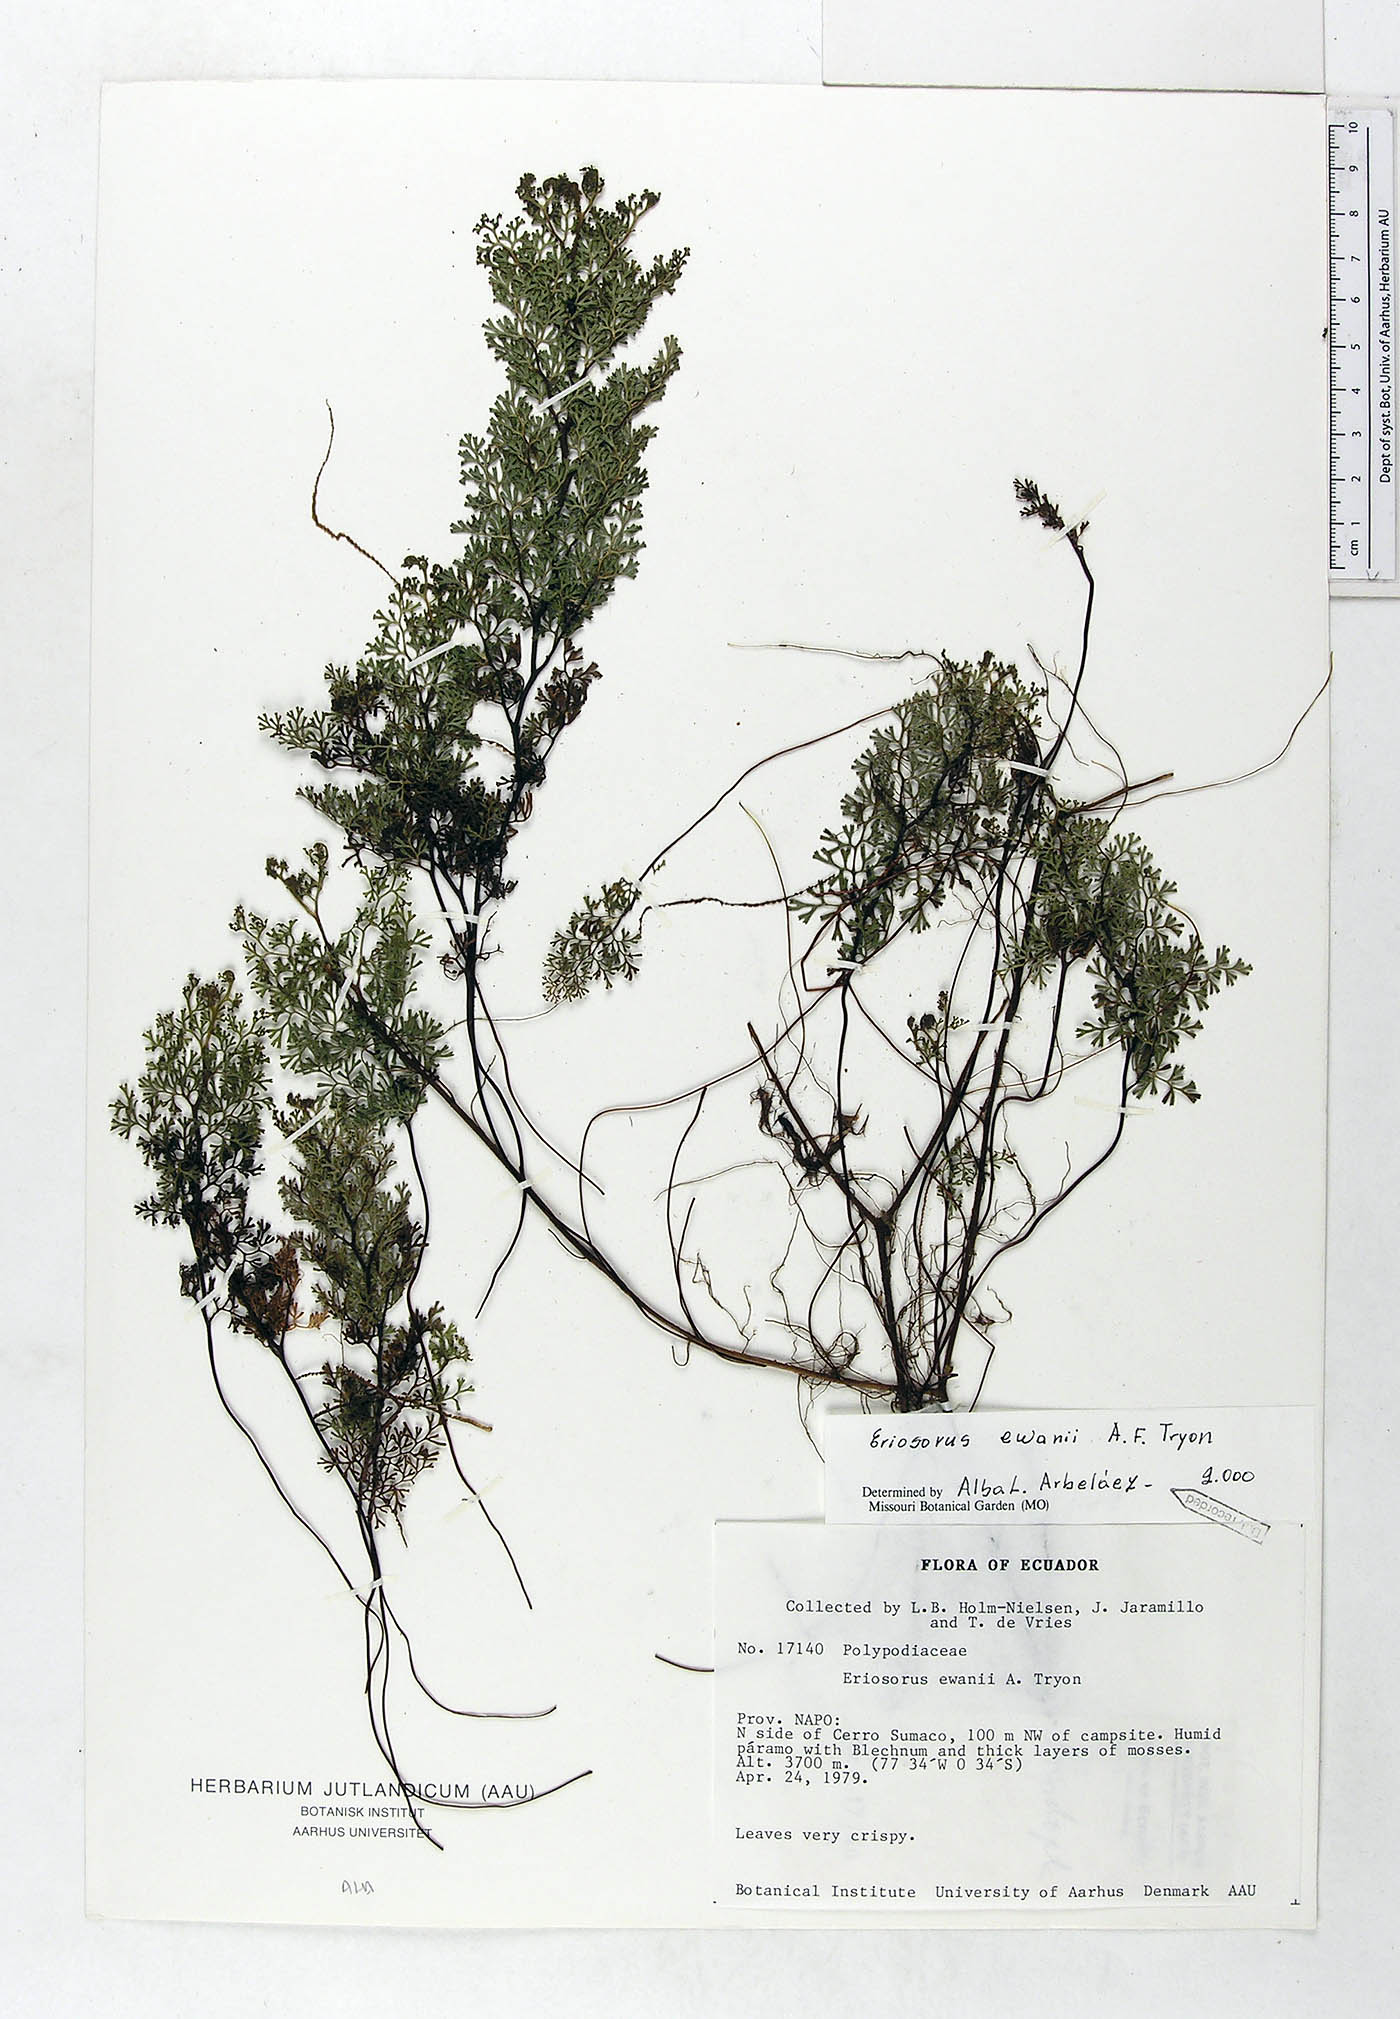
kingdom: Plantae
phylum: Tracheophyta
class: Polypodiopsida
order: Polypodiales
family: Pteridaceae
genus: Jamesonia
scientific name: Jamesonia ewanii
